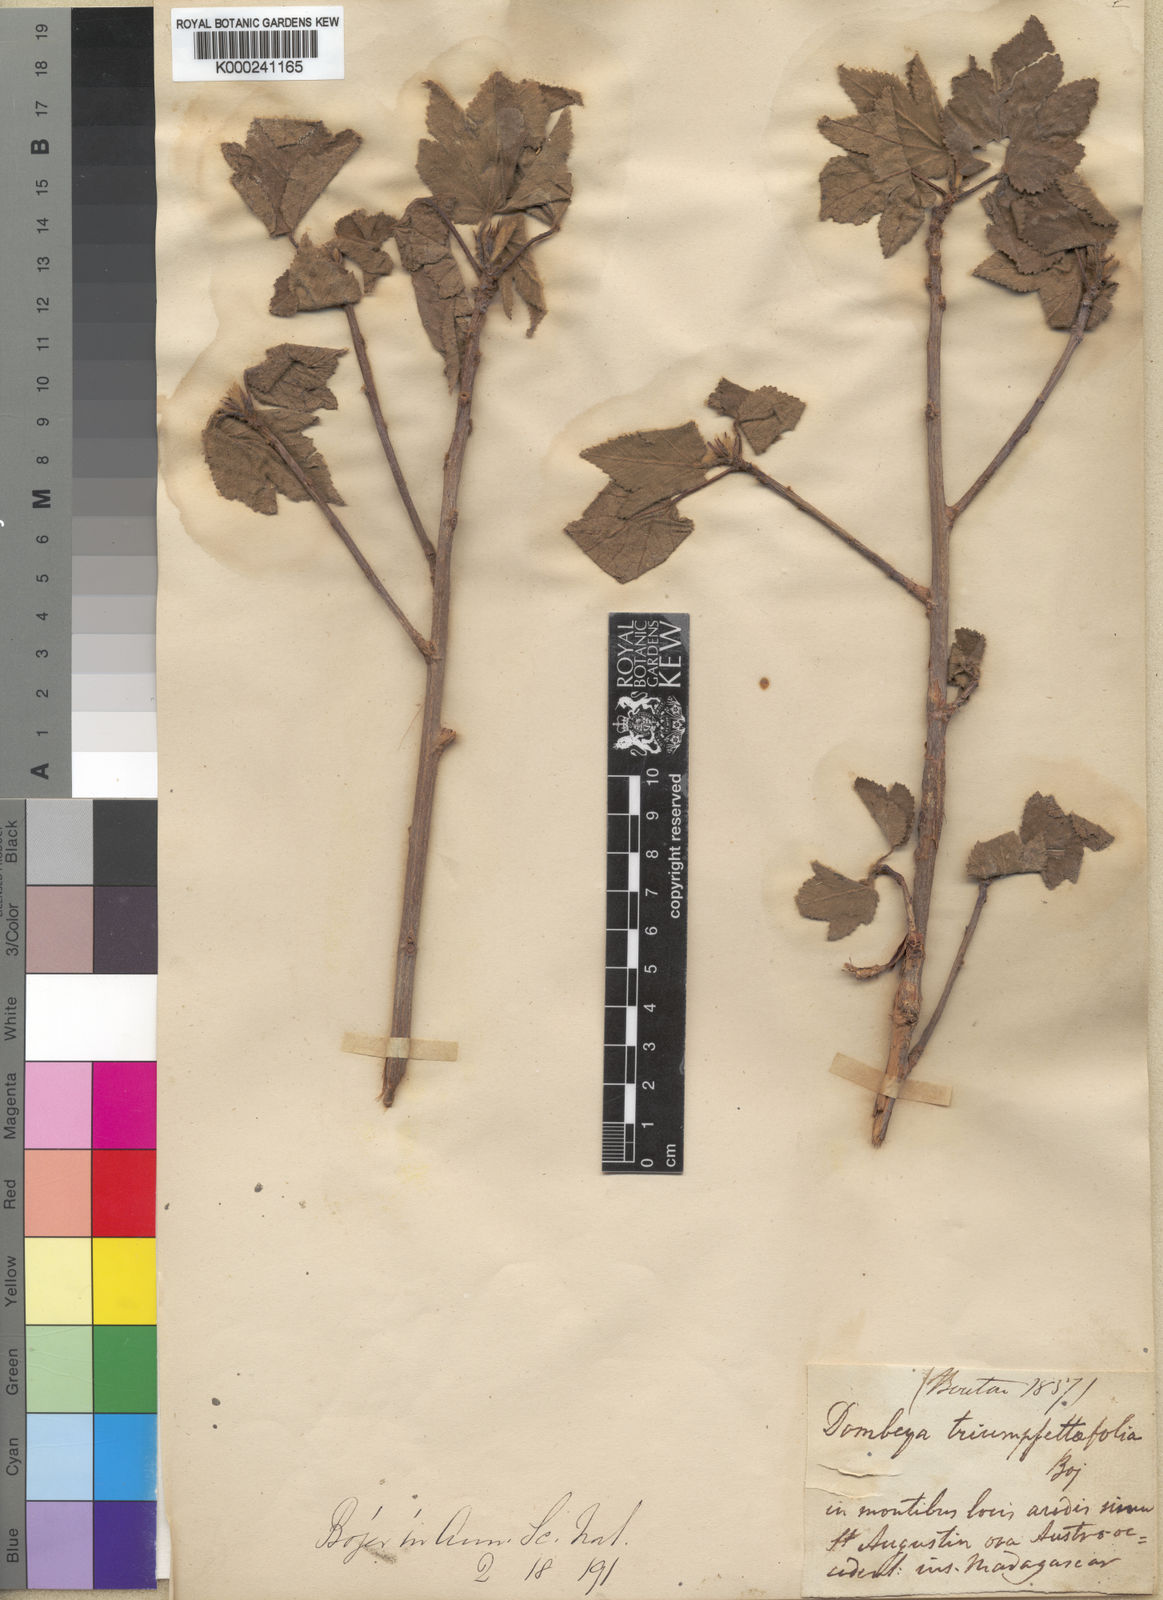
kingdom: Plantae
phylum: Tracheophyta
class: Magnoliopsida
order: Malvales
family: Malvaceae
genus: Dombeya
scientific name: Dombeya triumfettifolia
